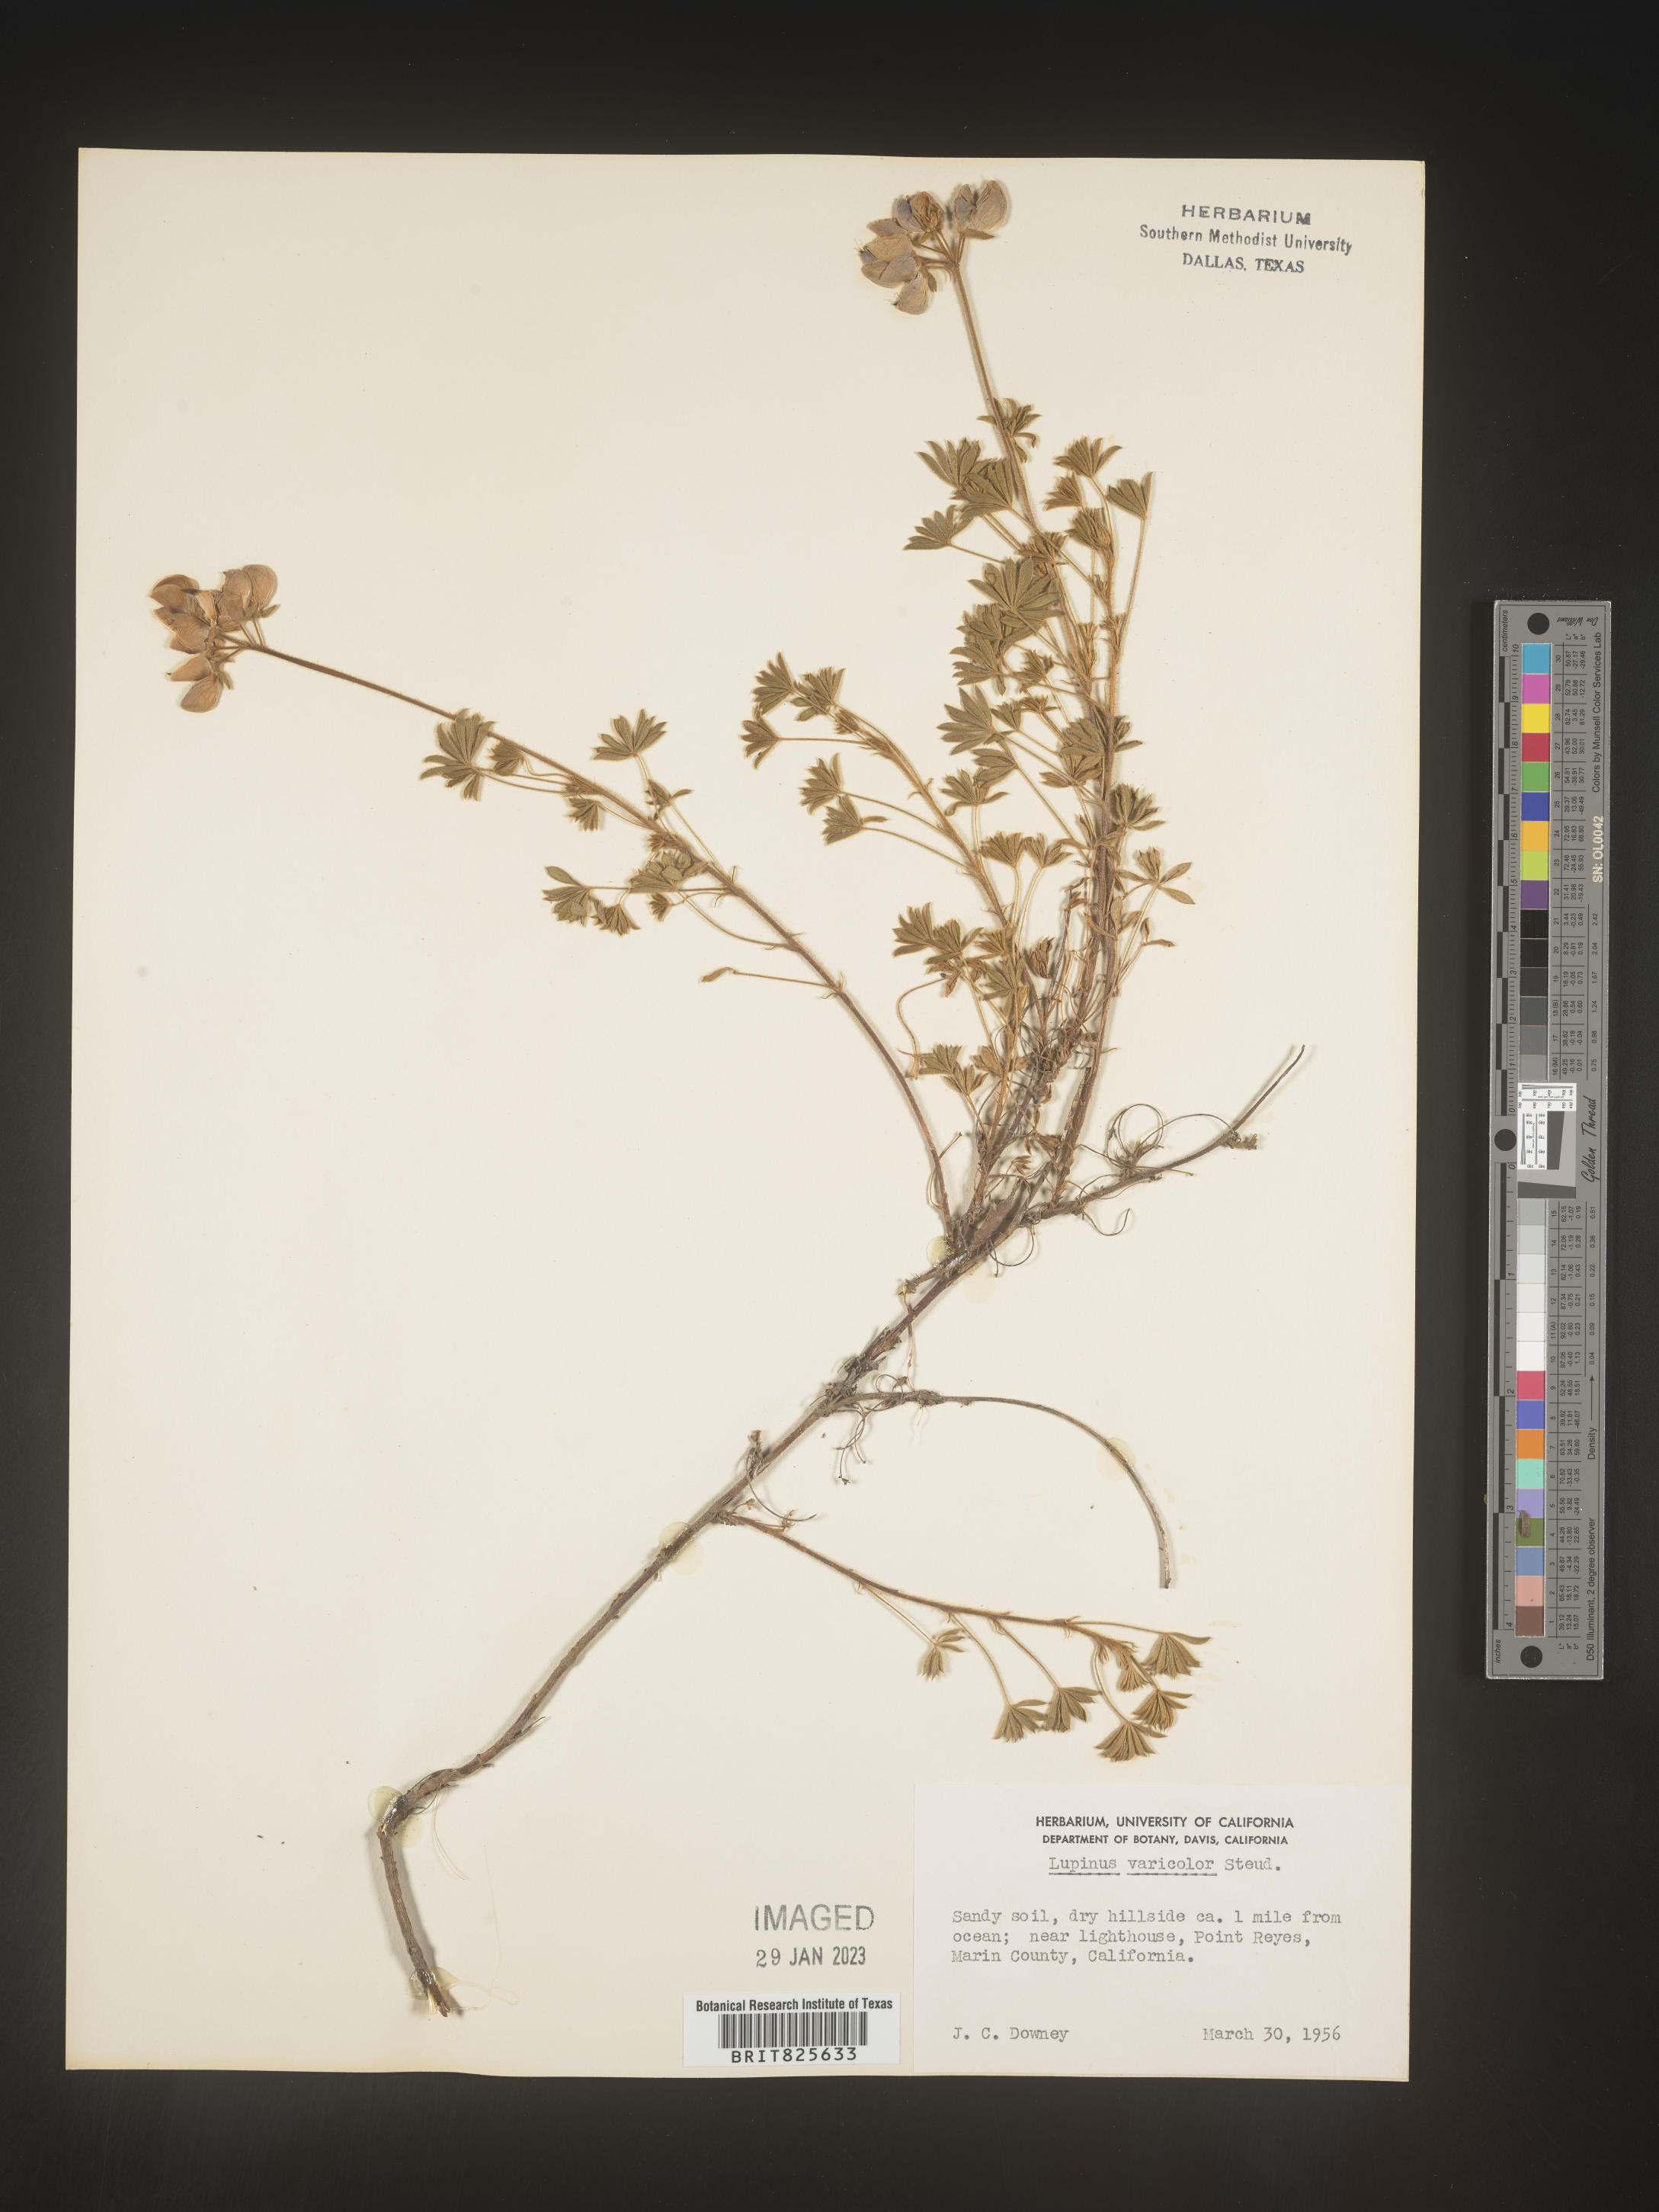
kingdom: Plantae
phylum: Tracheophyta
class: Magnoliopsida
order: Fabales
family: Fabaceae
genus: Lupinus
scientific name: Lupinus
